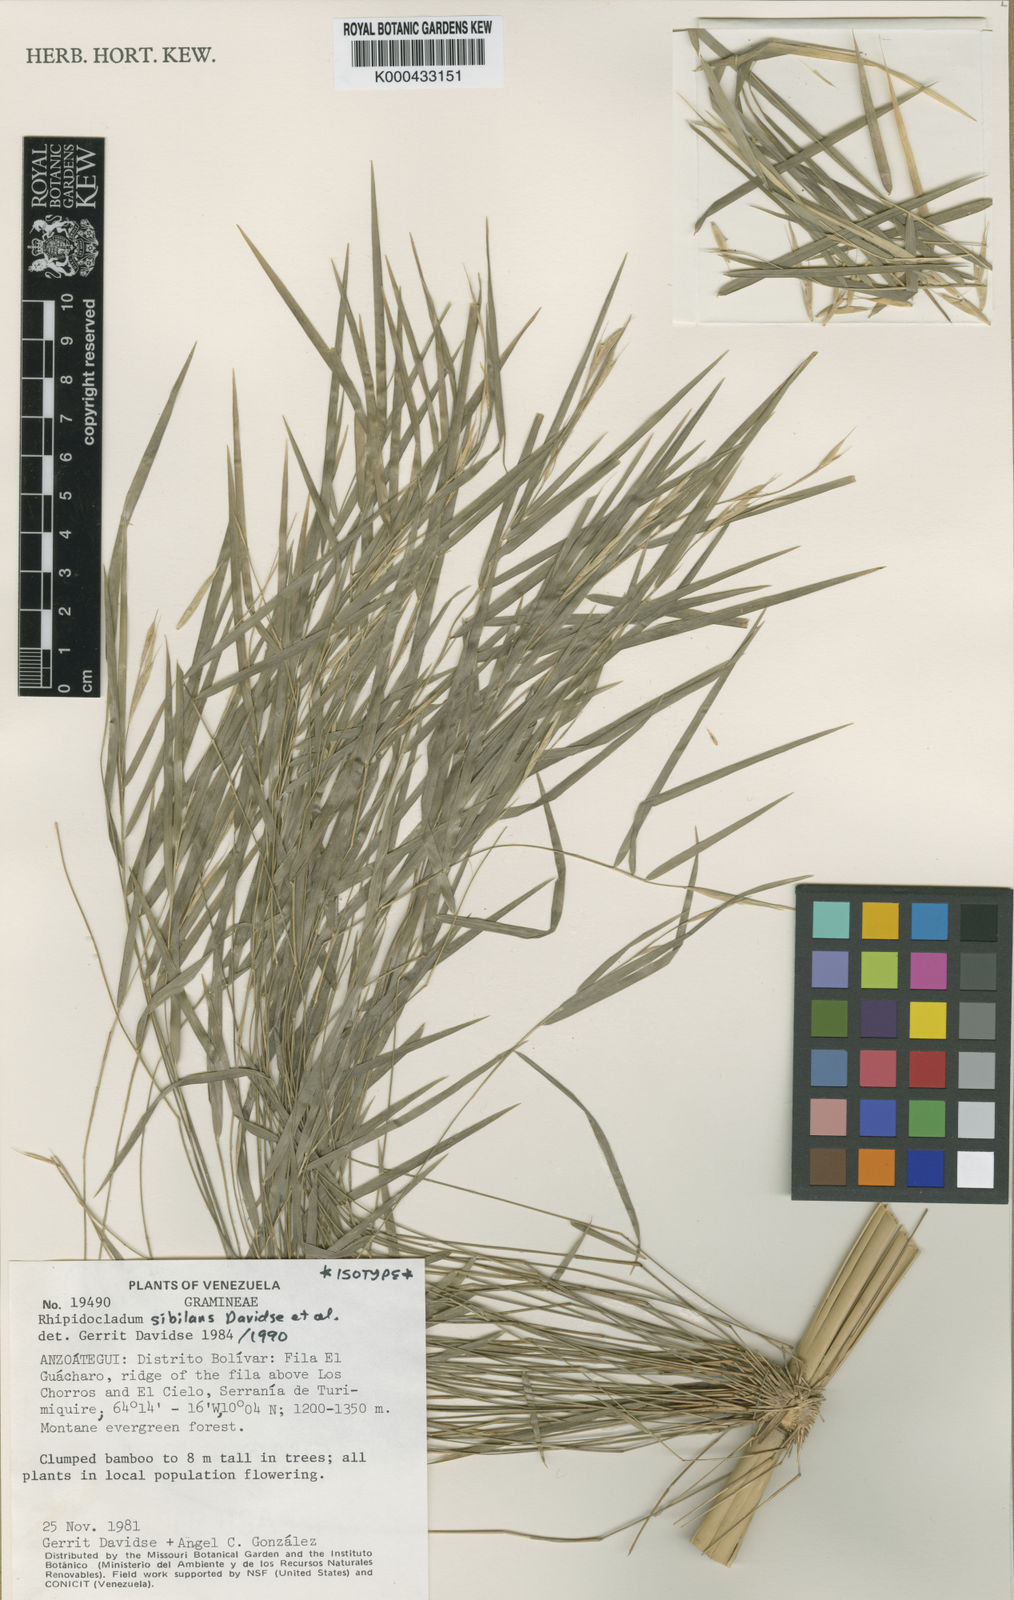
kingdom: Plantae
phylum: Tracheophyta
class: Liliopsida
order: Poales
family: Poaceae
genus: Rhipidocladum
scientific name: Rhipidocladum
